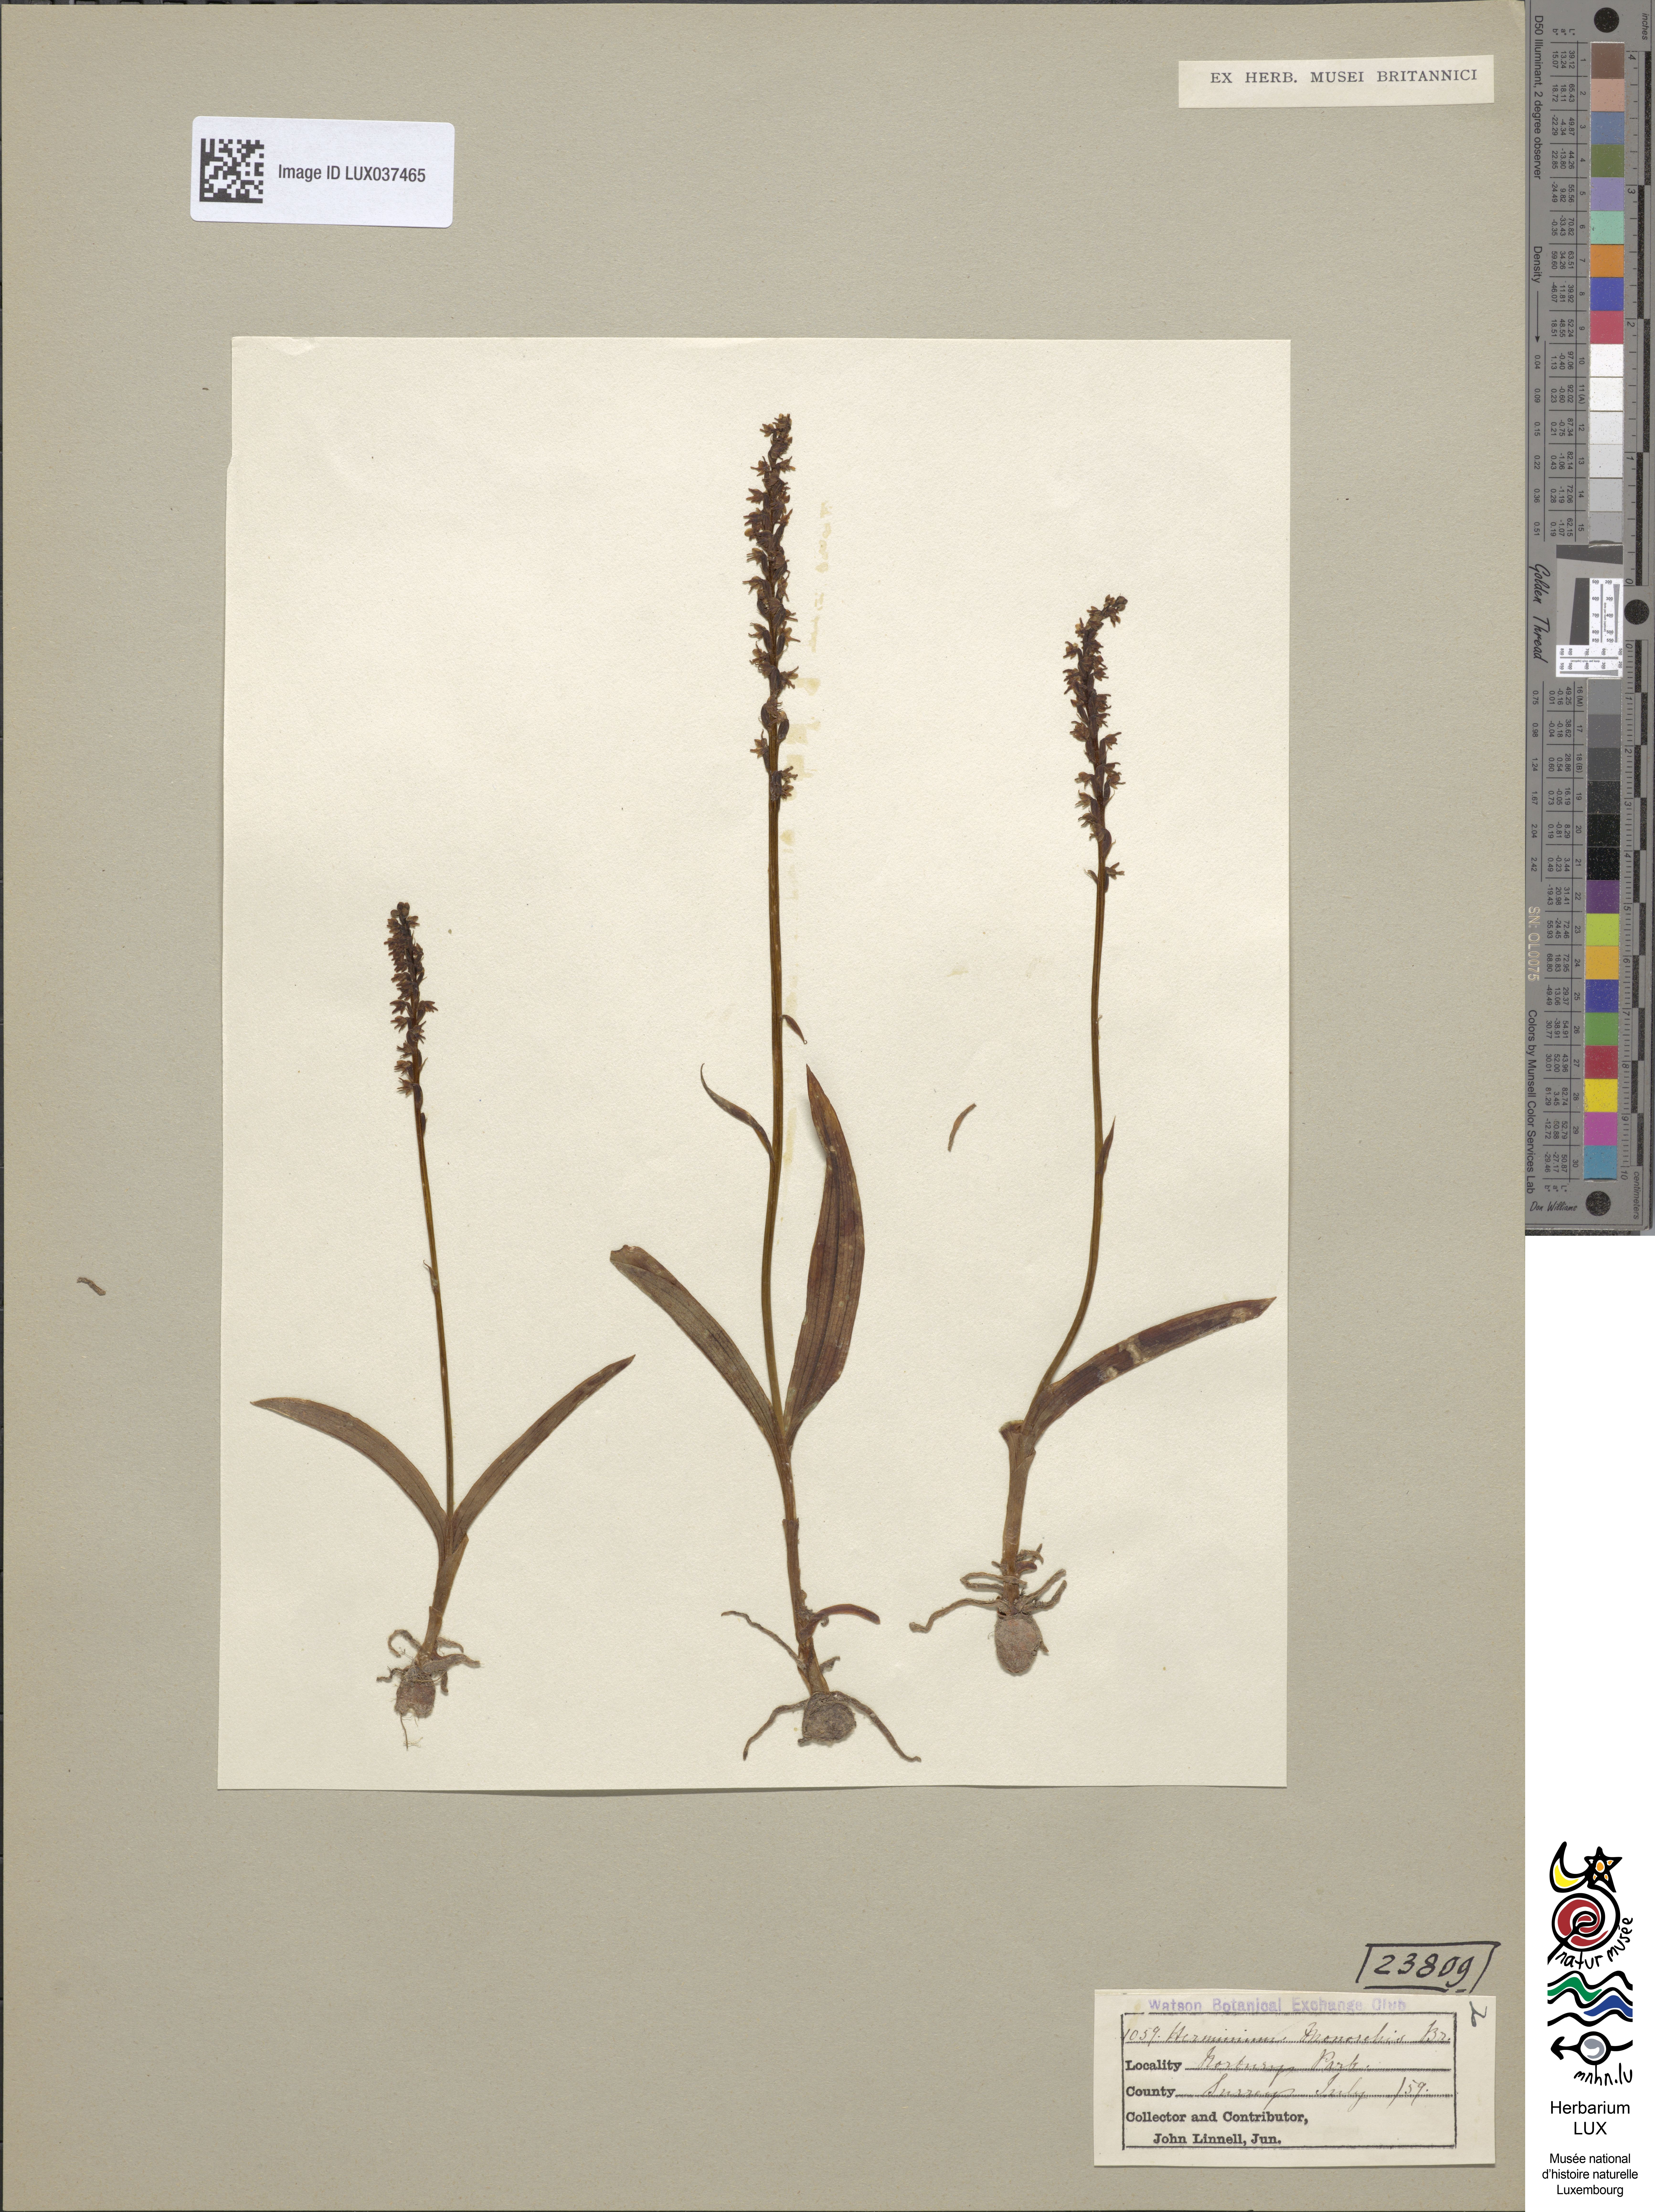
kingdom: Plantae
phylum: Tracheophyta
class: Liliopsida
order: Asparagales
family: Orchidaceae
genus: Herminium
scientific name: Herminium monorchis
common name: Musk orchid
